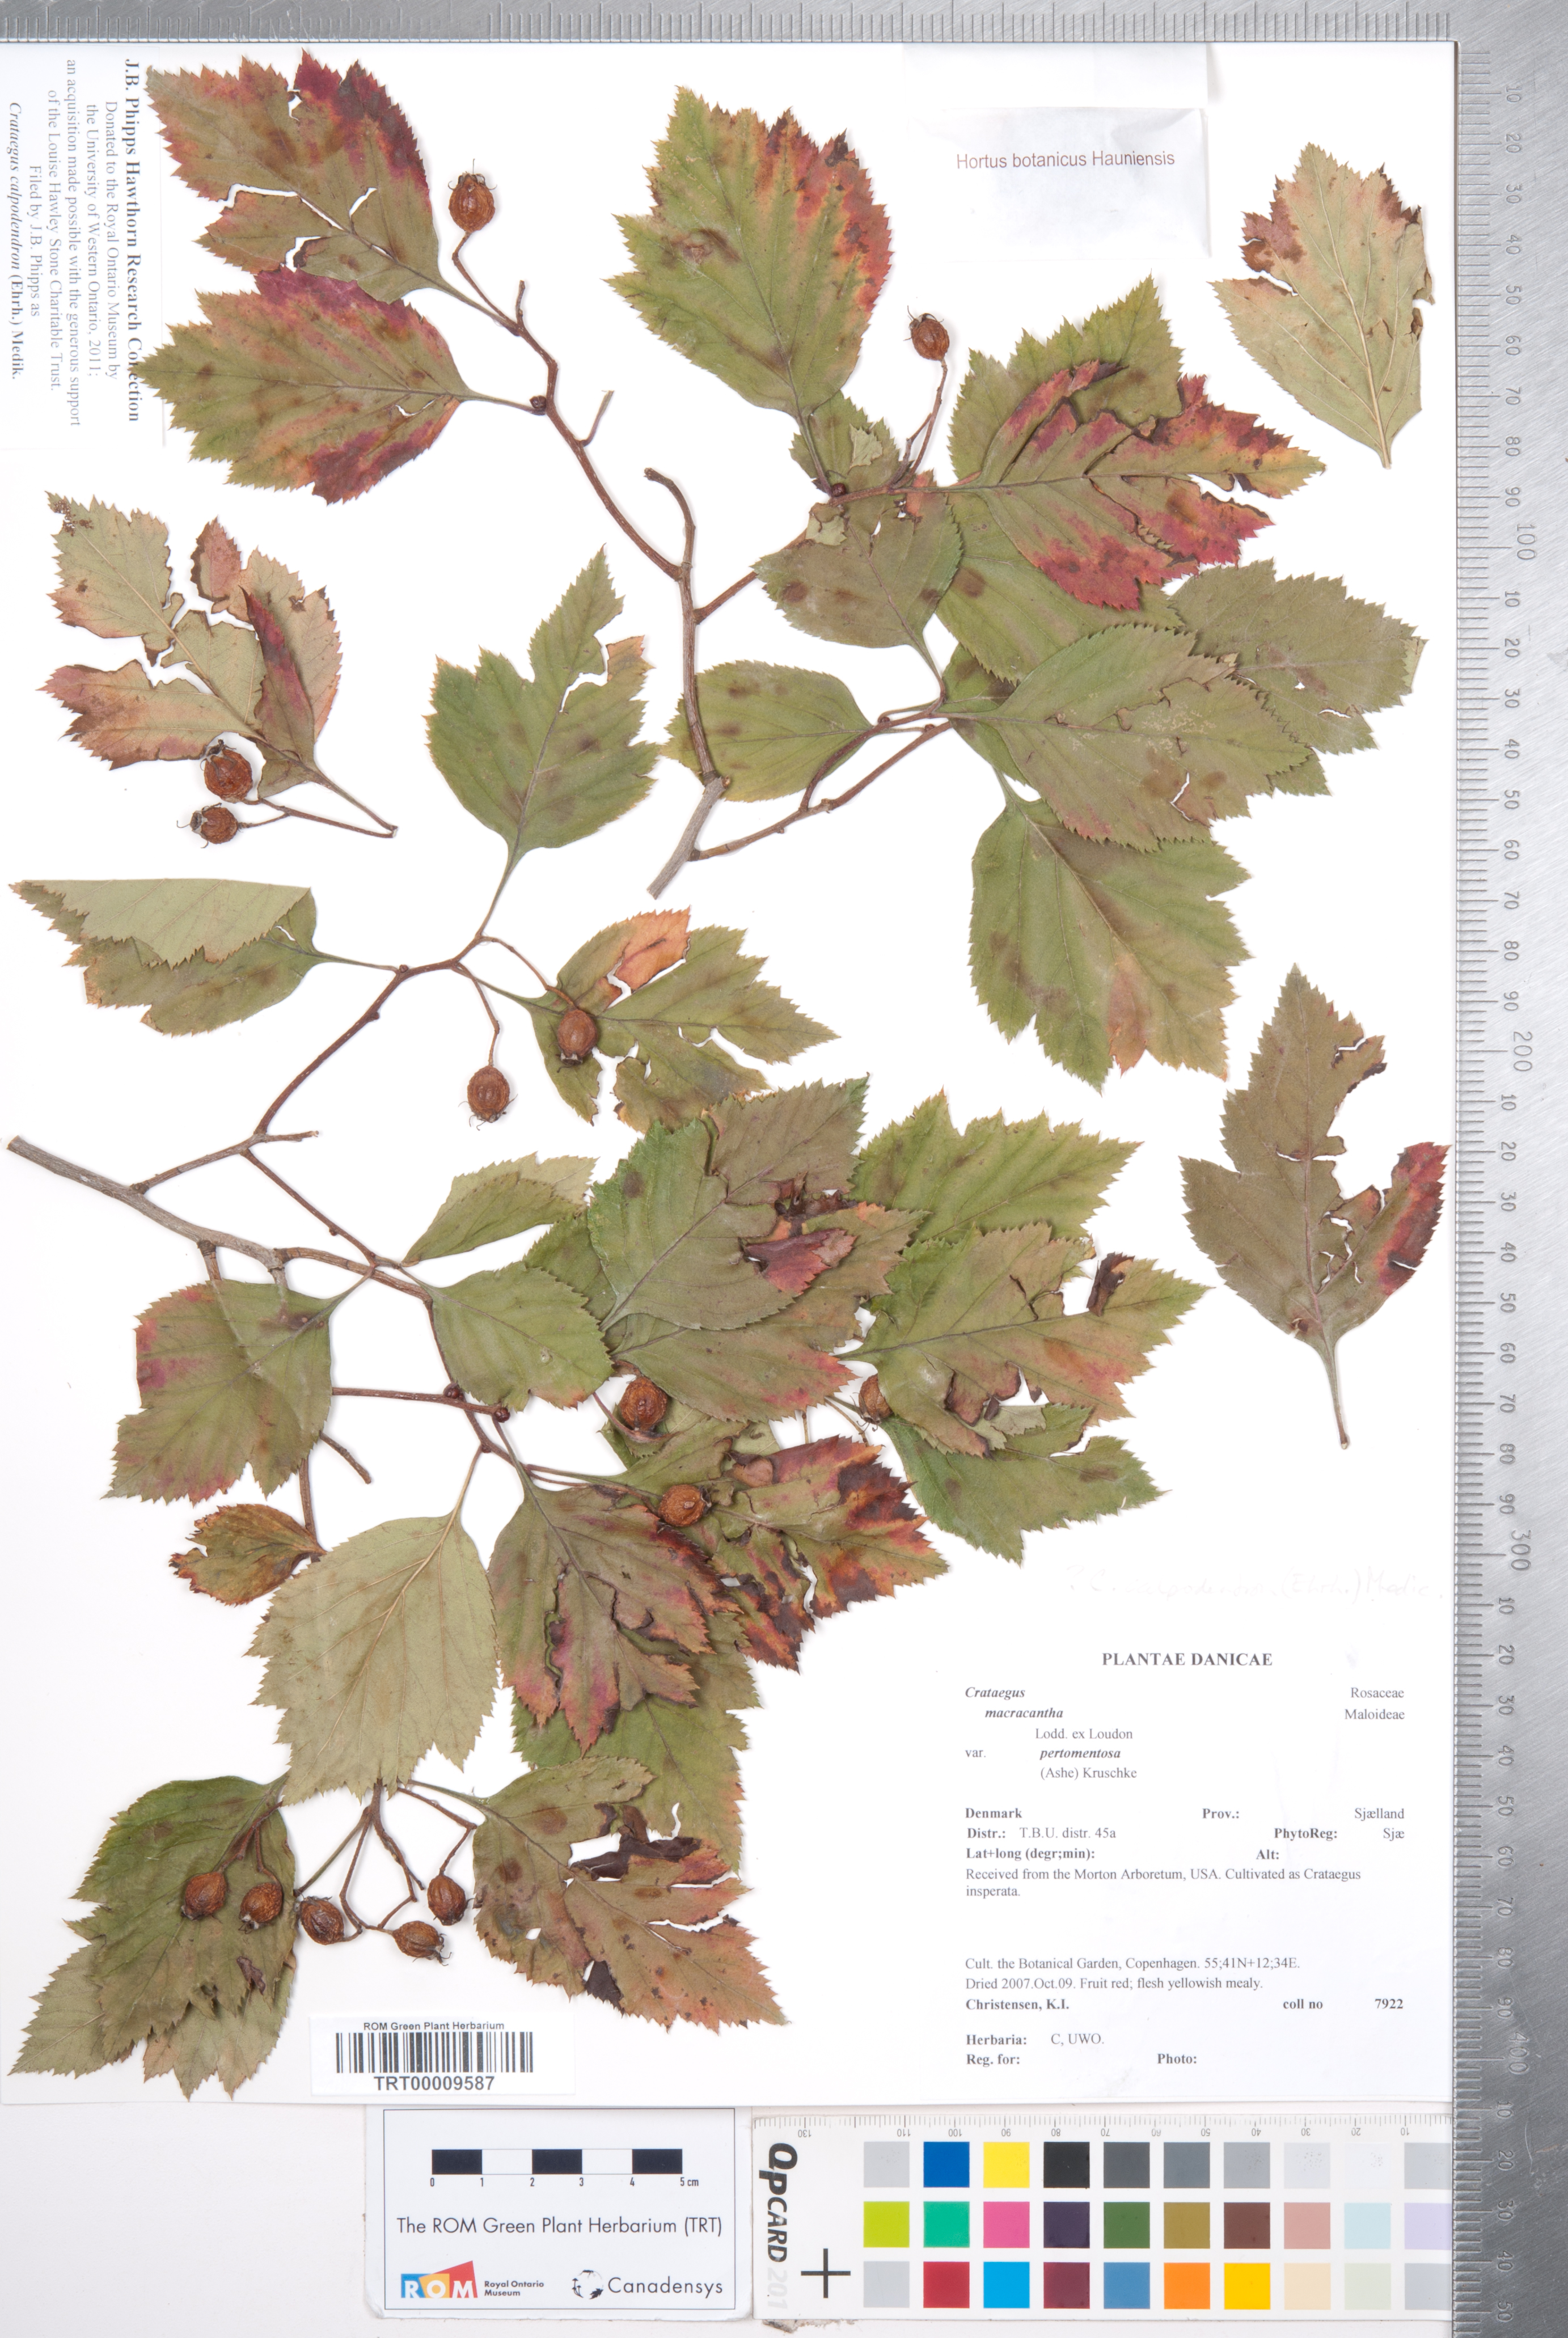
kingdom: Plantae
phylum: Tracheophyta
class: Magnoliopsida
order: Rosales
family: Rosaceae
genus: Crataegus
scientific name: Crataegus calpodendron
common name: Pear hawthorn
